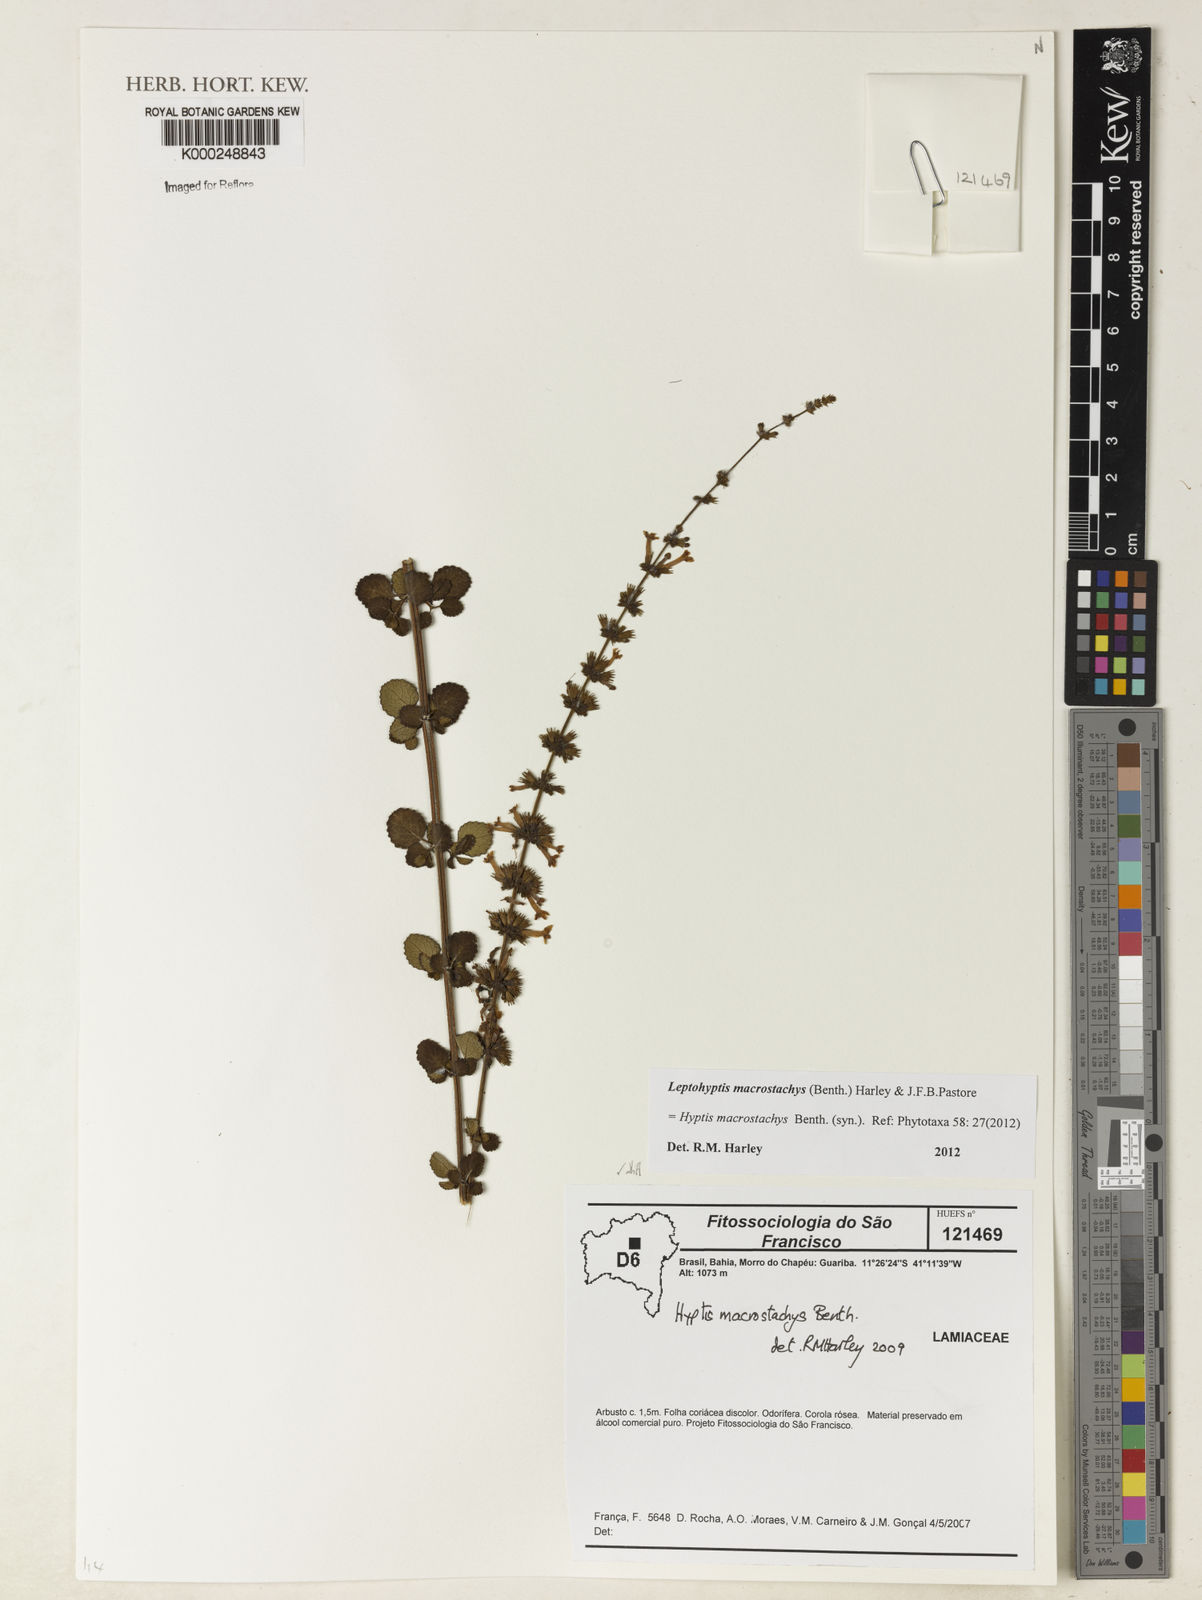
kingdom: Plantae
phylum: Tracheophyta
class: Magnoliopsida
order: Lamiales
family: Lamiaceae
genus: Leptohyptis
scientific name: Leptohyptis macrostachys
